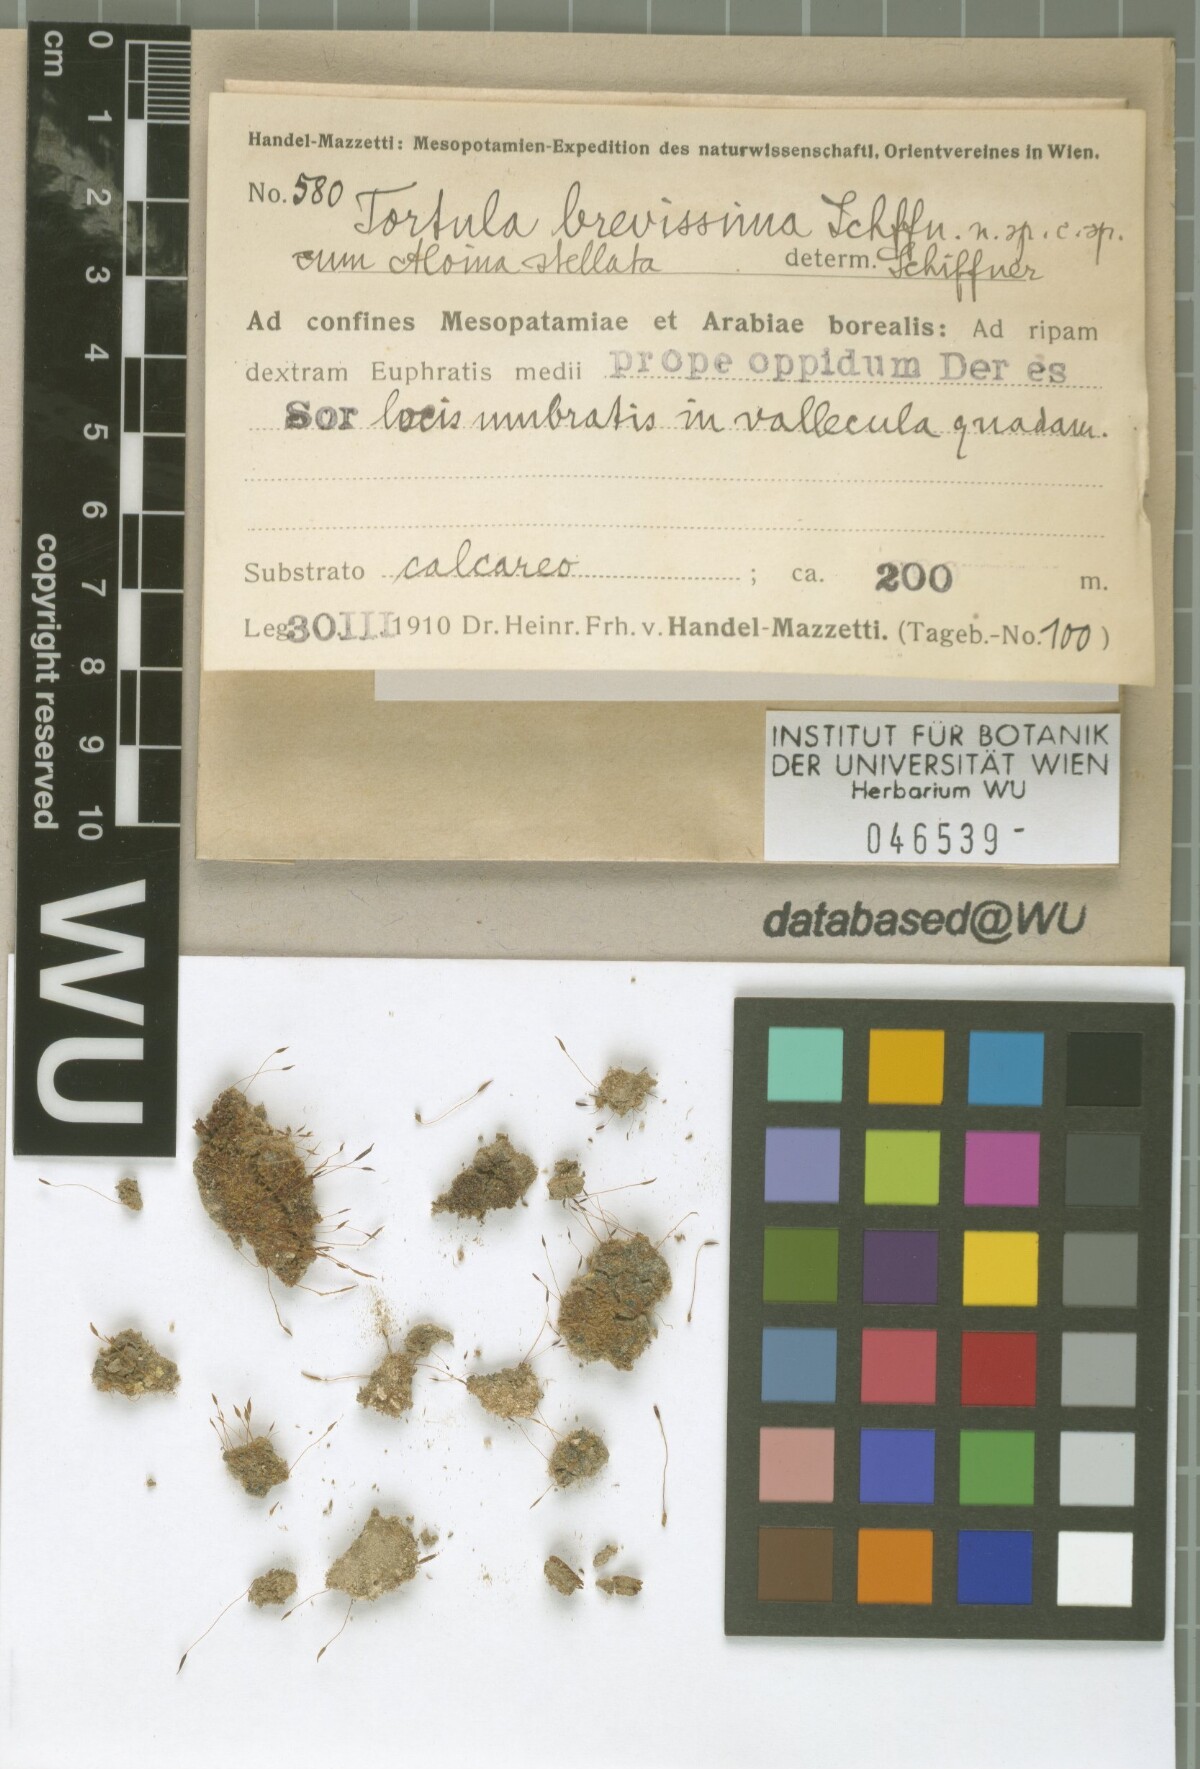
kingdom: Plantae
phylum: Bryophyta
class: Bryopsida
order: Pottiales
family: Pottiaceae
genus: Tortula
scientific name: Tortula brevissima
